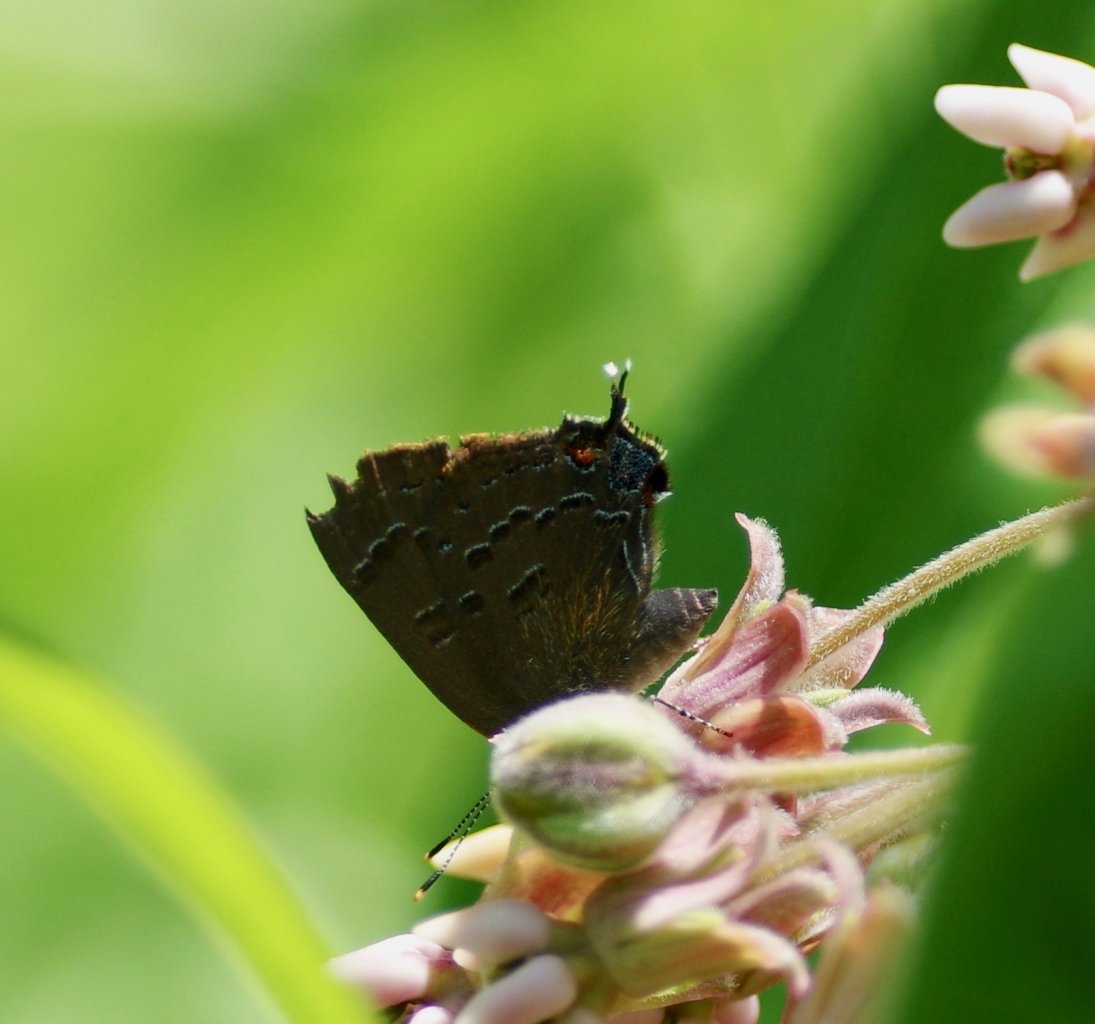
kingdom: Animalia
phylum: Arthropoda
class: Insecta
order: Lepidoptera
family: Lycaenidae
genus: Satyrium
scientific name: Satyrium calanus
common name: Banded Hairstreak
